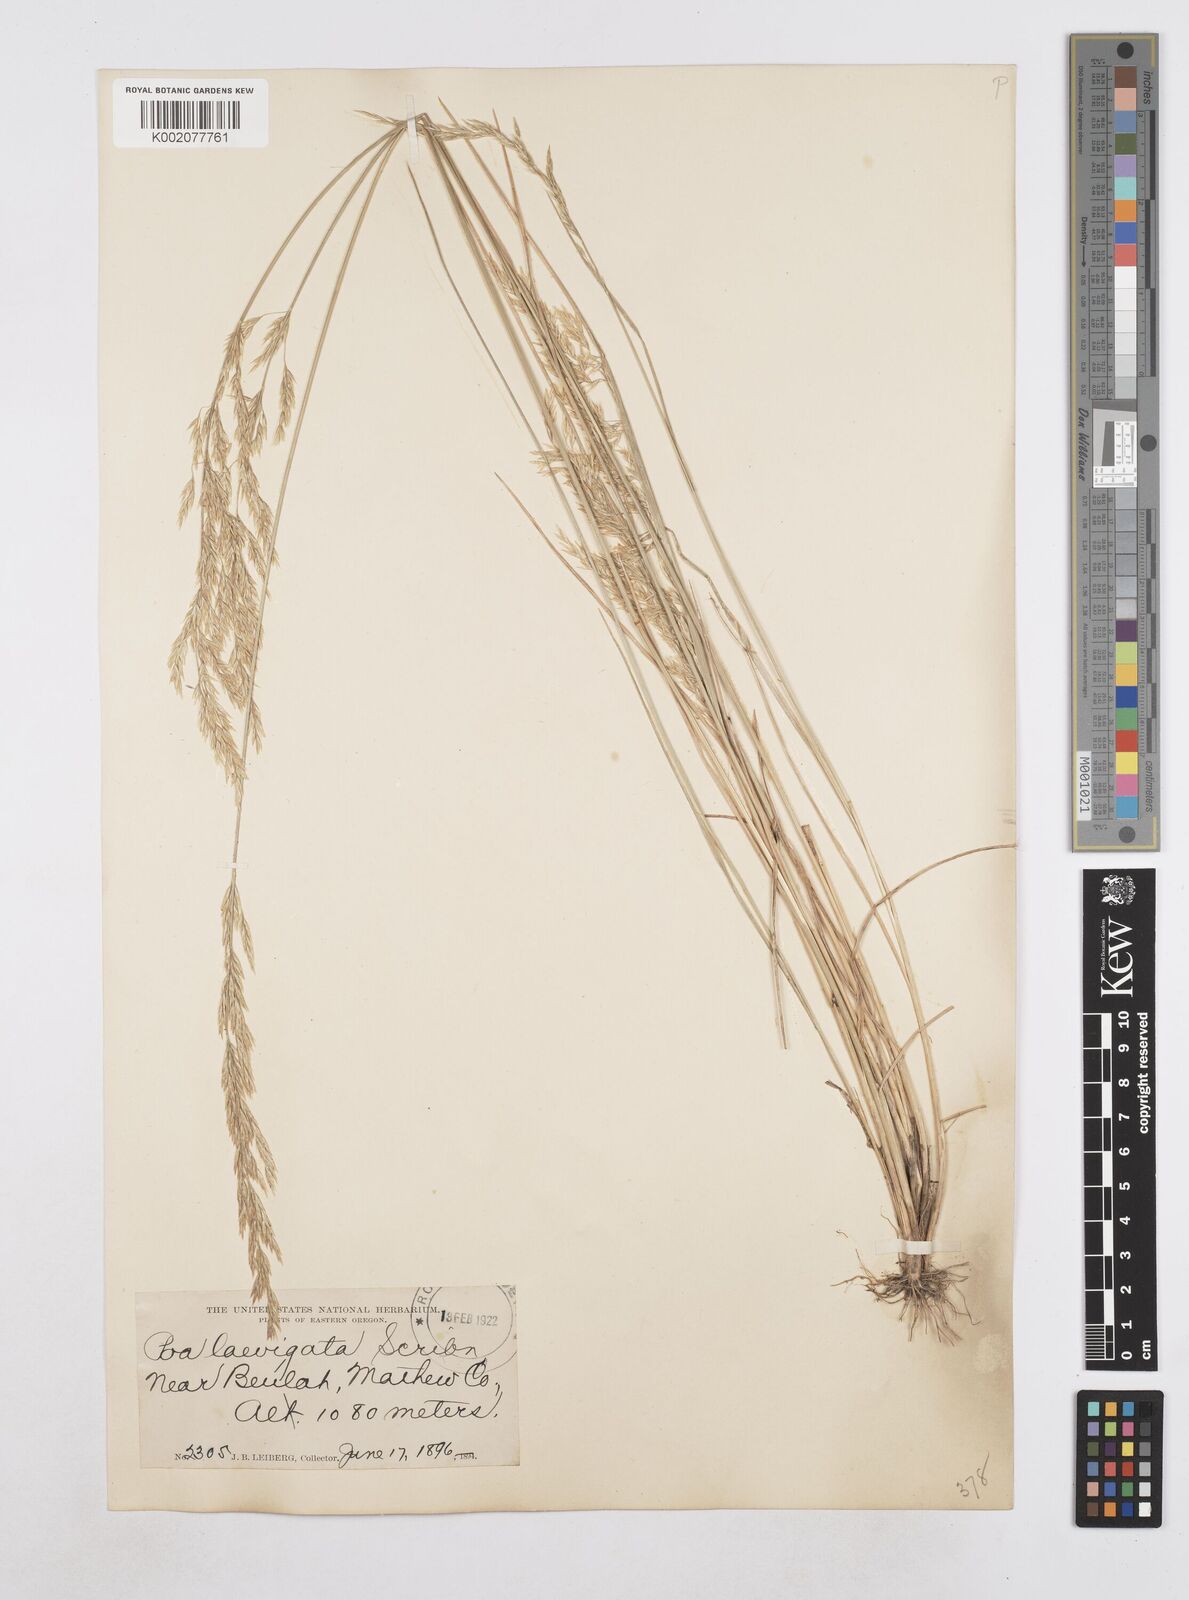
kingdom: Plantae
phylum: Tracheophyta
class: Liliopsida
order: Poales
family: Poaceae
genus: Poa
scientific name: Poa secunda
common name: Sandberg bluegrass
